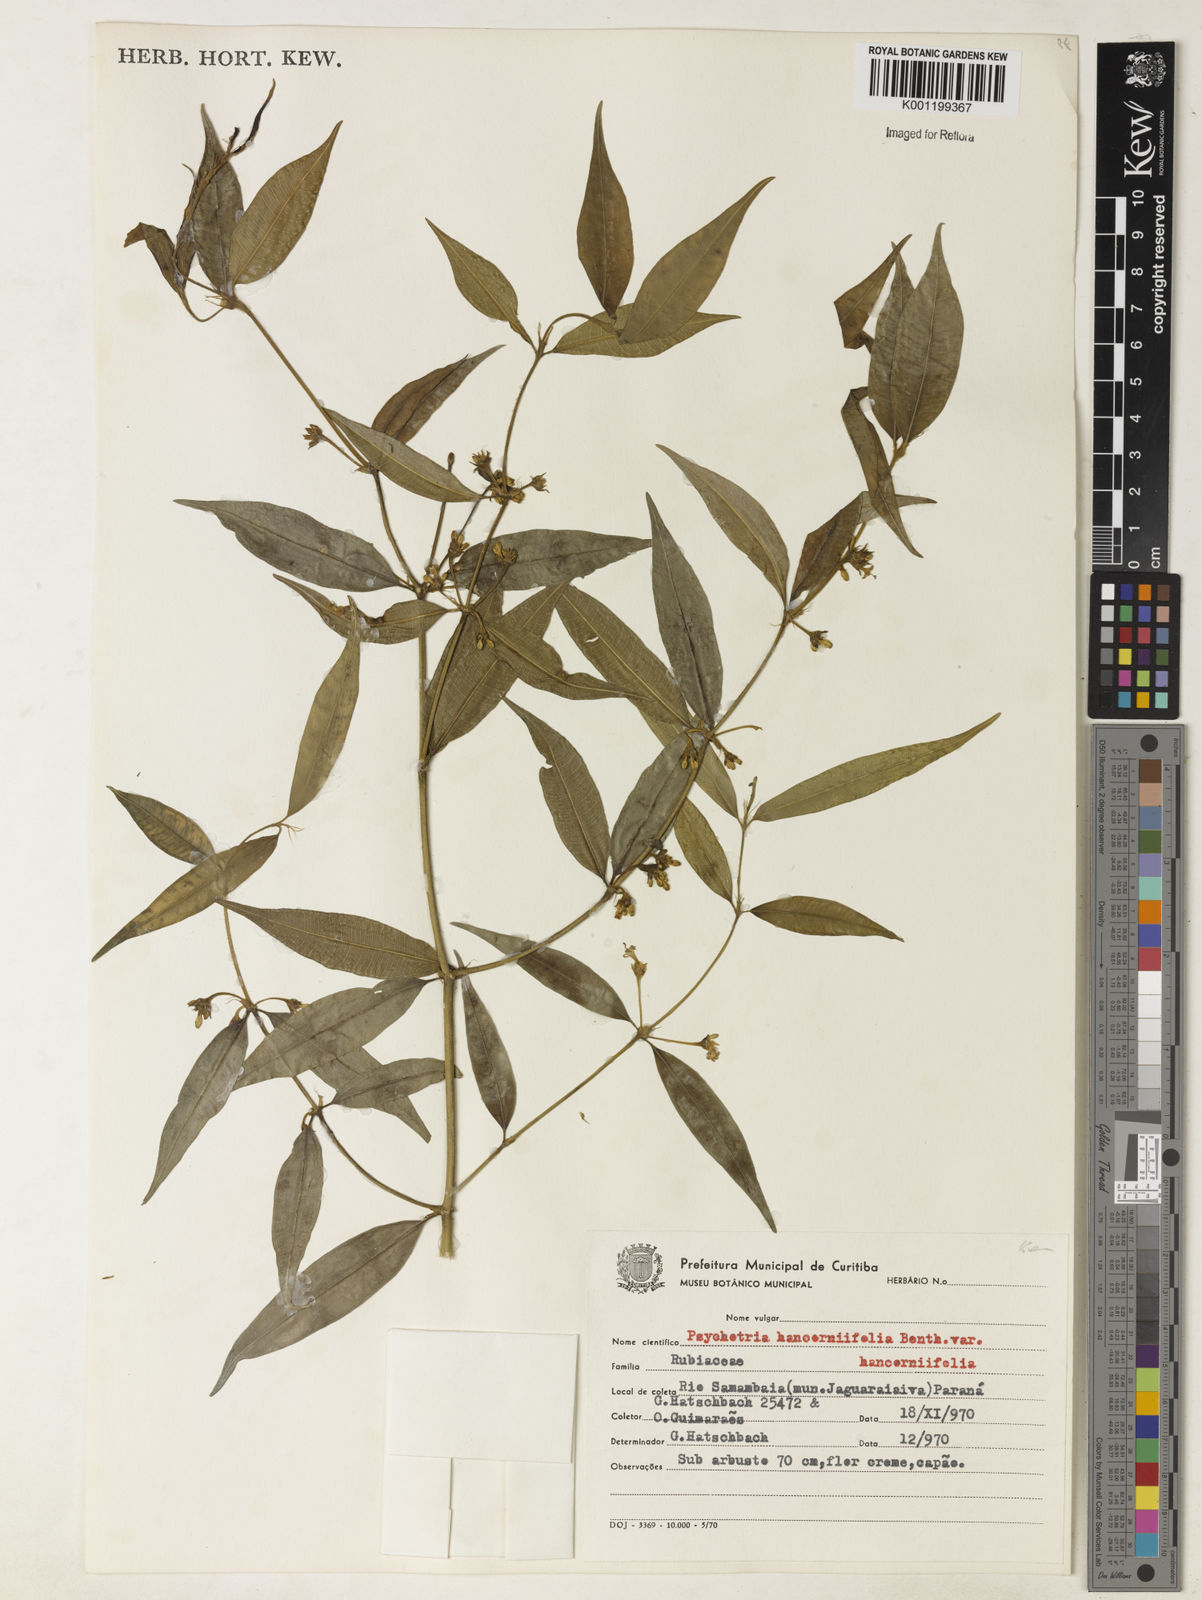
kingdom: Plantae
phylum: Tracheophyta
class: Magnoliopsida
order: Gentianales
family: Rubiaceae
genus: Palicourea
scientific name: Palicourea sessilis
